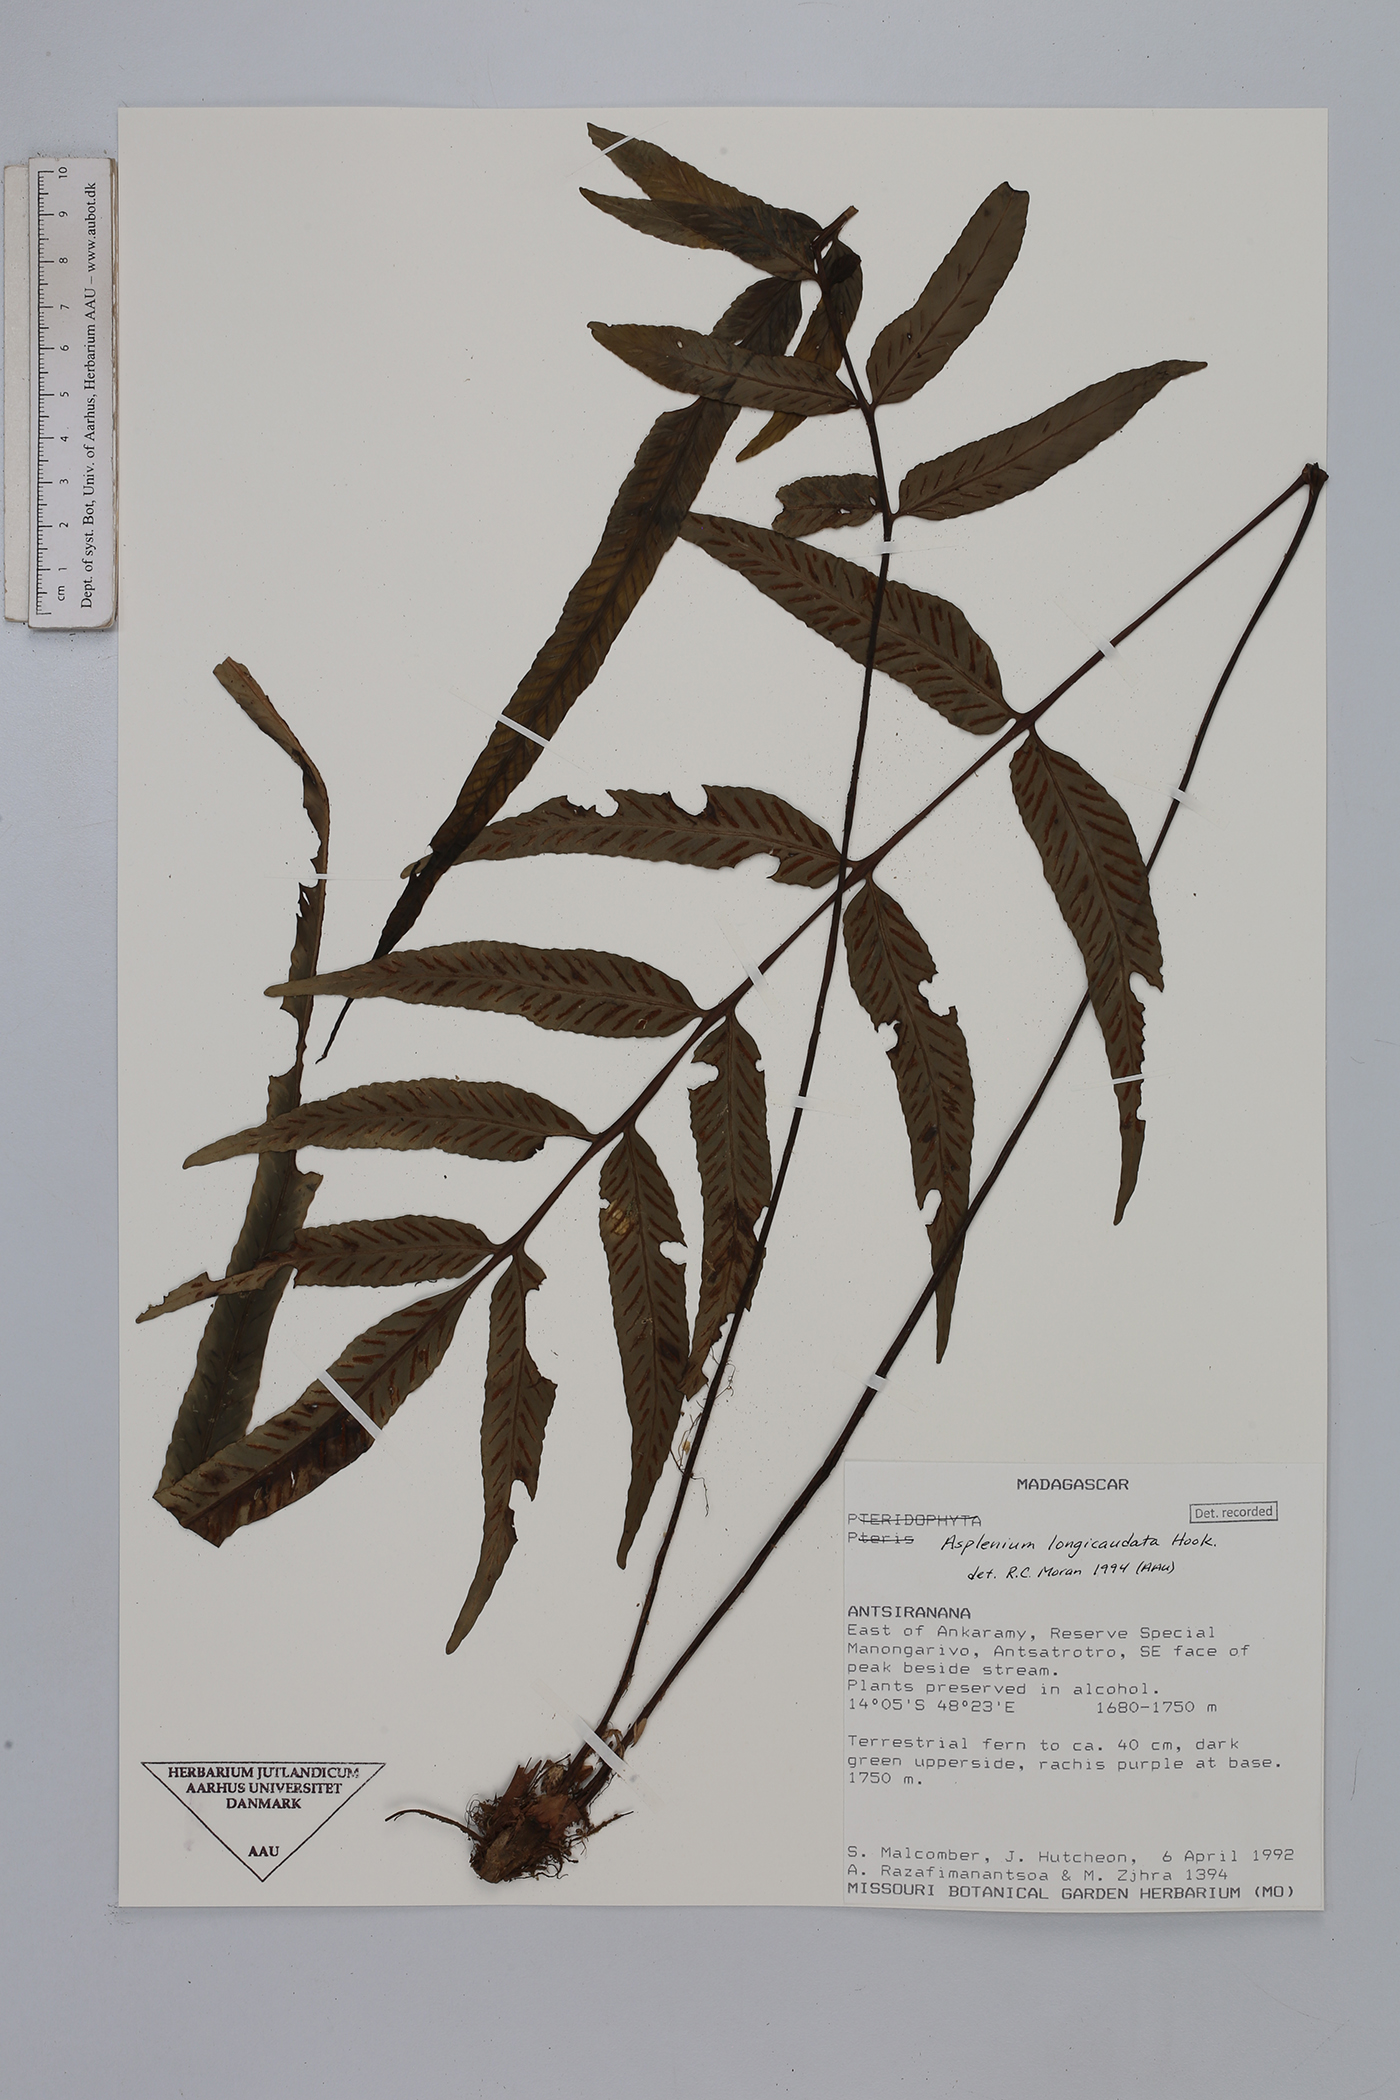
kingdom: Plantae
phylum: Tracheophyta
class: Polypodiopsida
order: Polypodiales
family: Aspleniaceae
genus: Asplenium
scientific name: Asplenium longicauda
